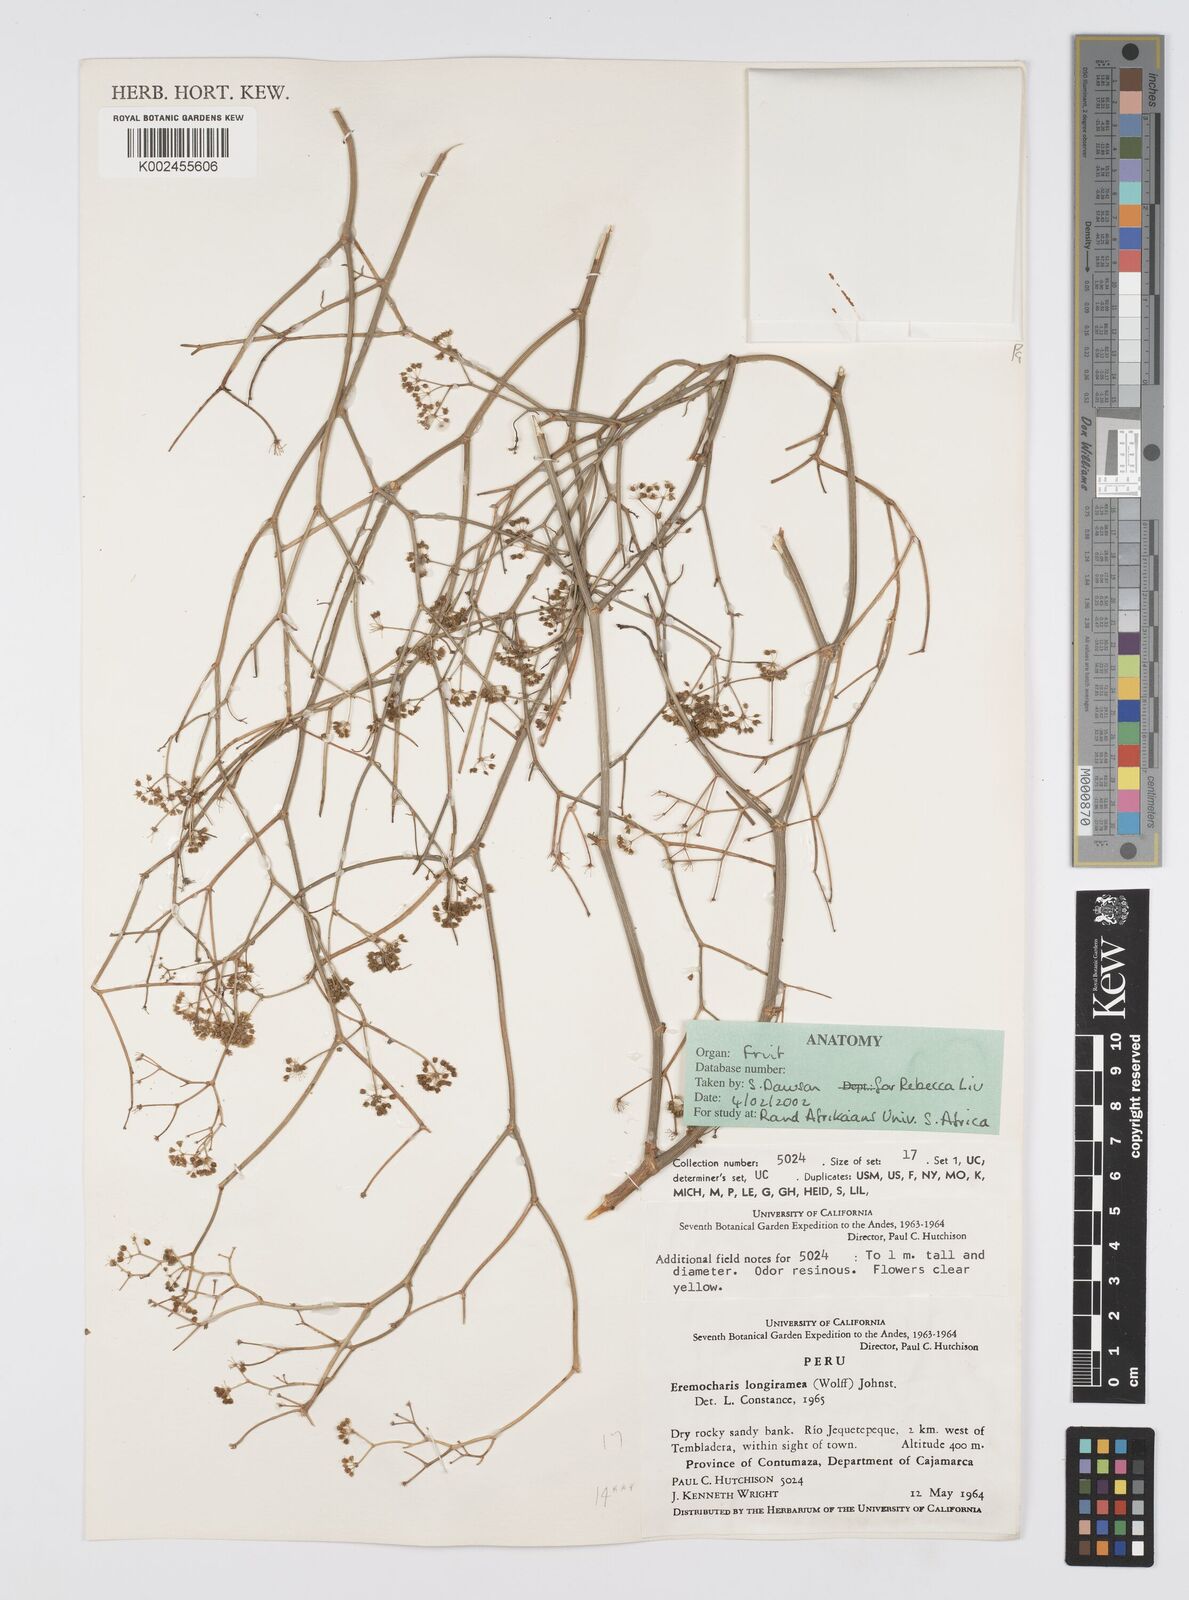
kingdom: Plantae
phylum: Tracheophyta
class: Magnoliopsida
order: Apiales
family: Apiaceae
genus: Eremocharis
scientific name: Eremocharis longiramea
